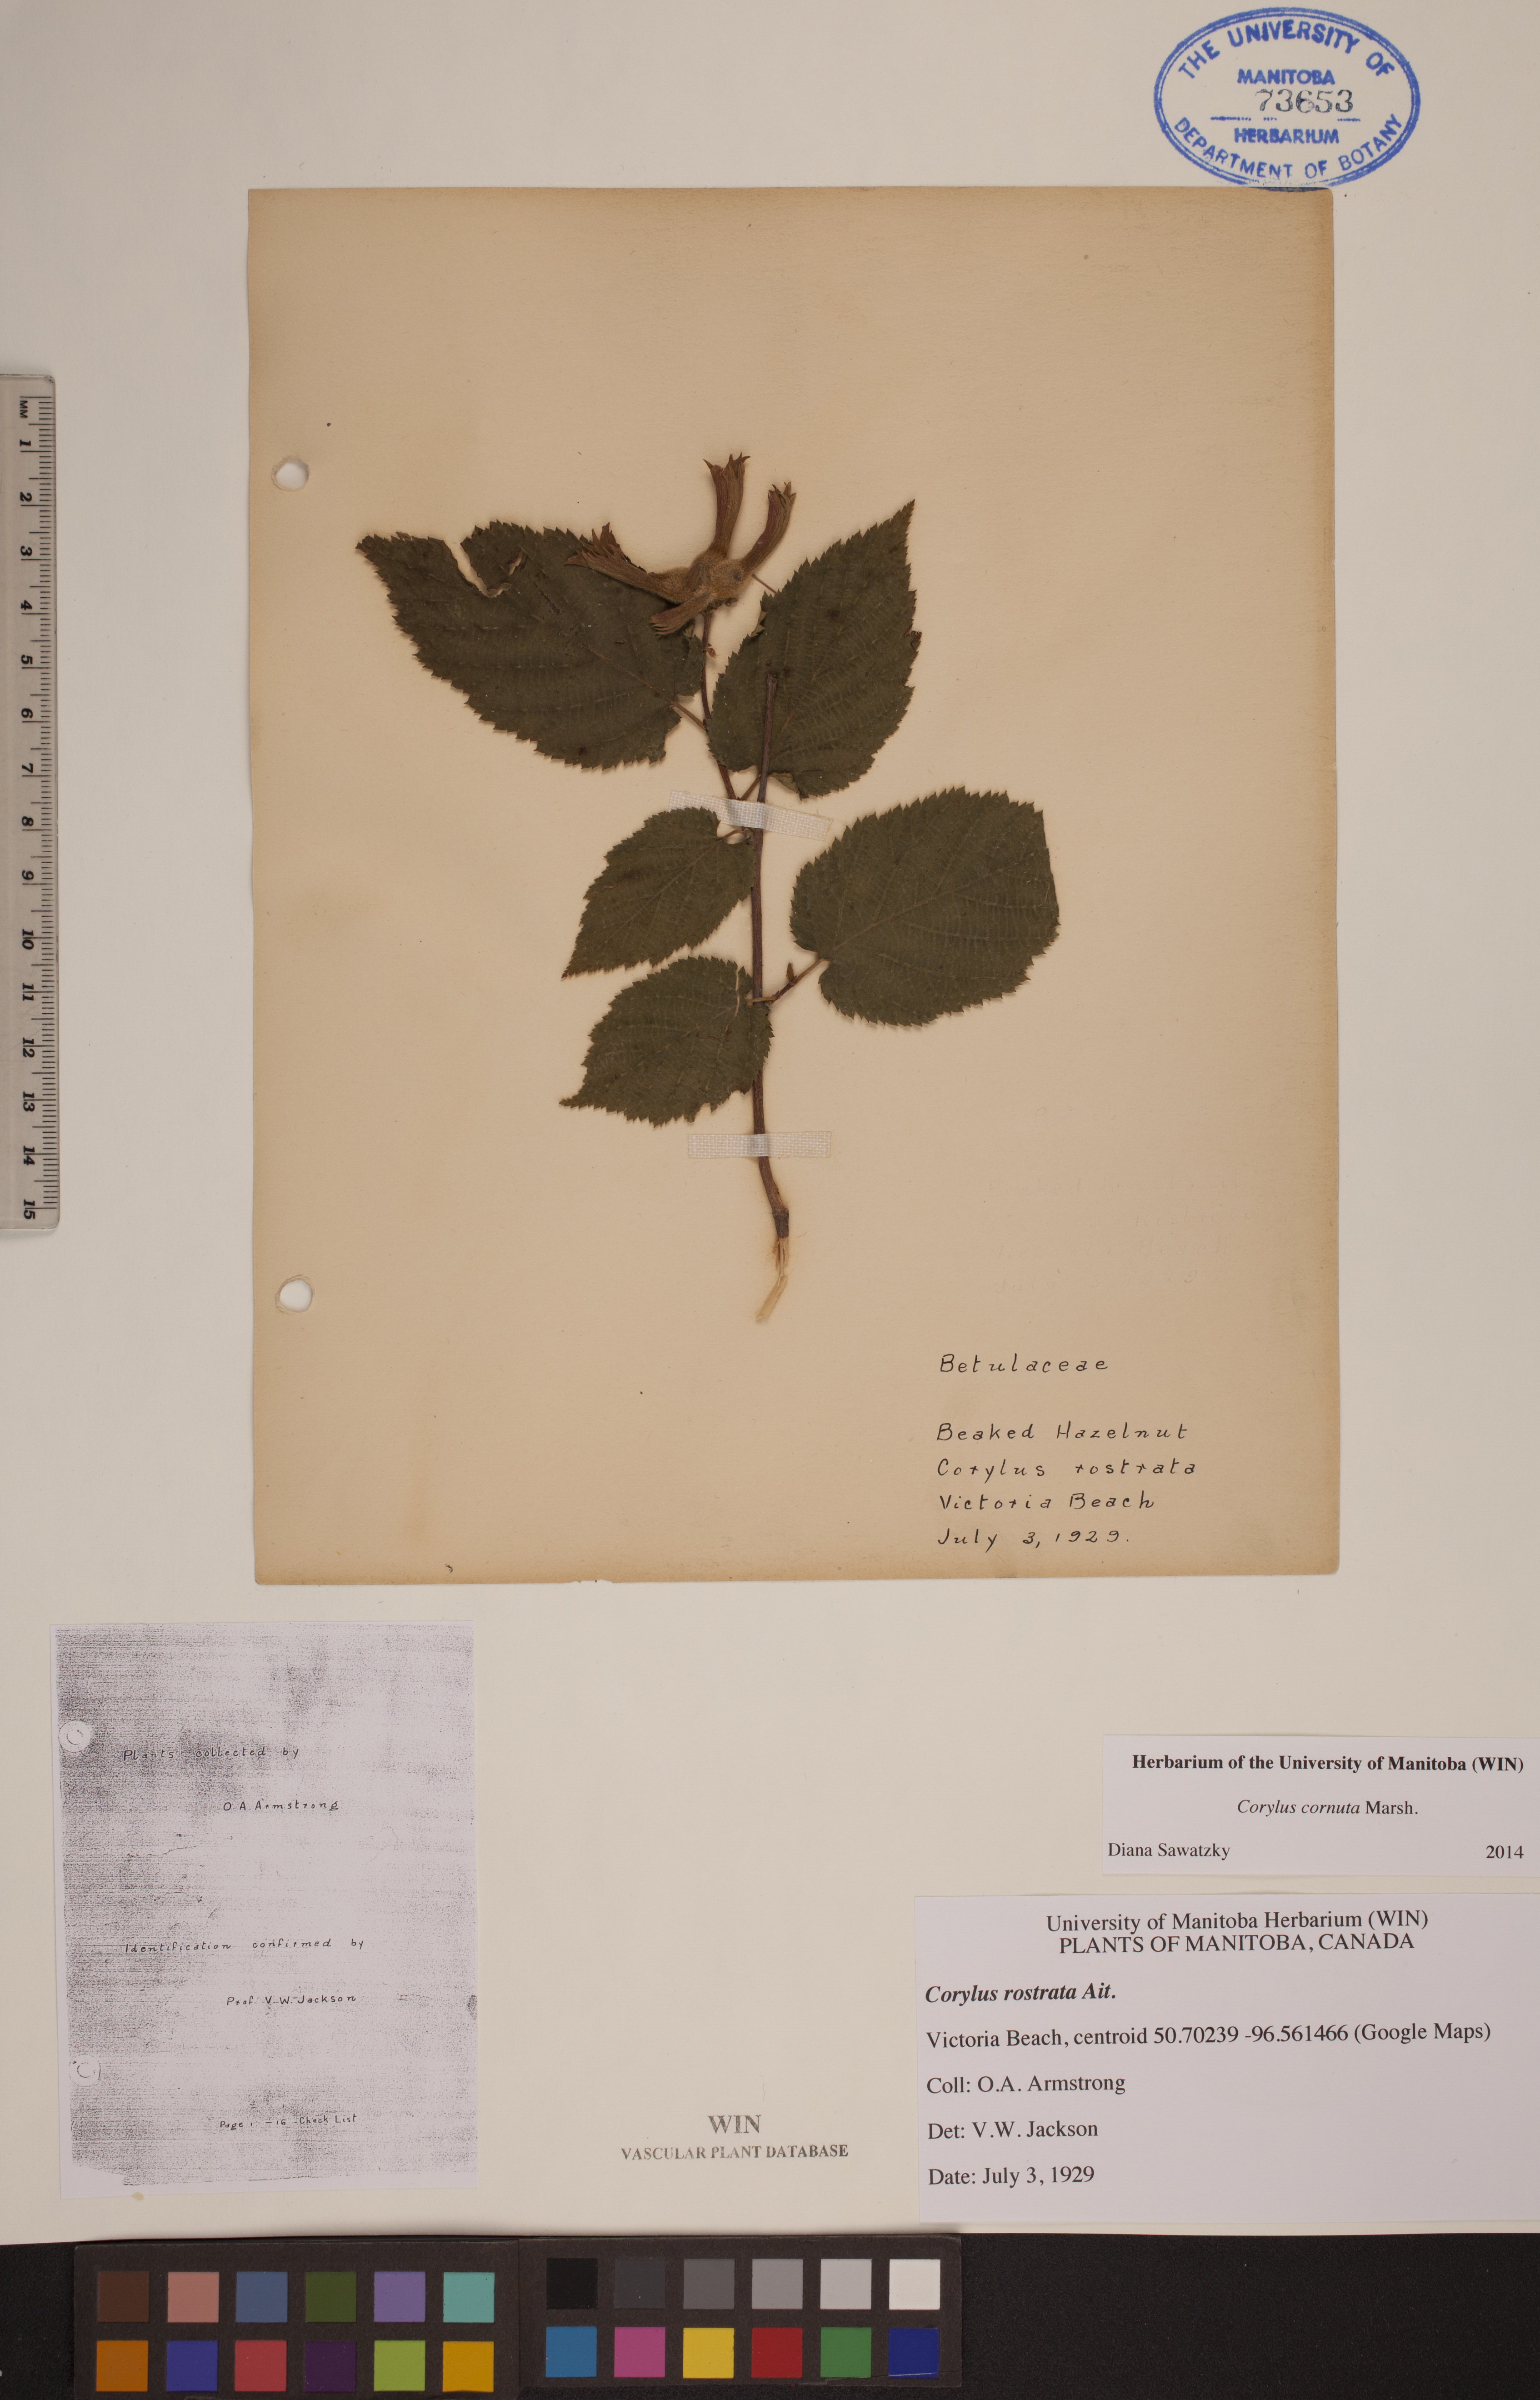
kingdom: Plantae
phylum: Tracheophyta
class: Magnoliopsida
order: Fagales
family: Betulaceae
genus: Corylus
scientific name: Corylus cornuta
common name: Beaked hazel
